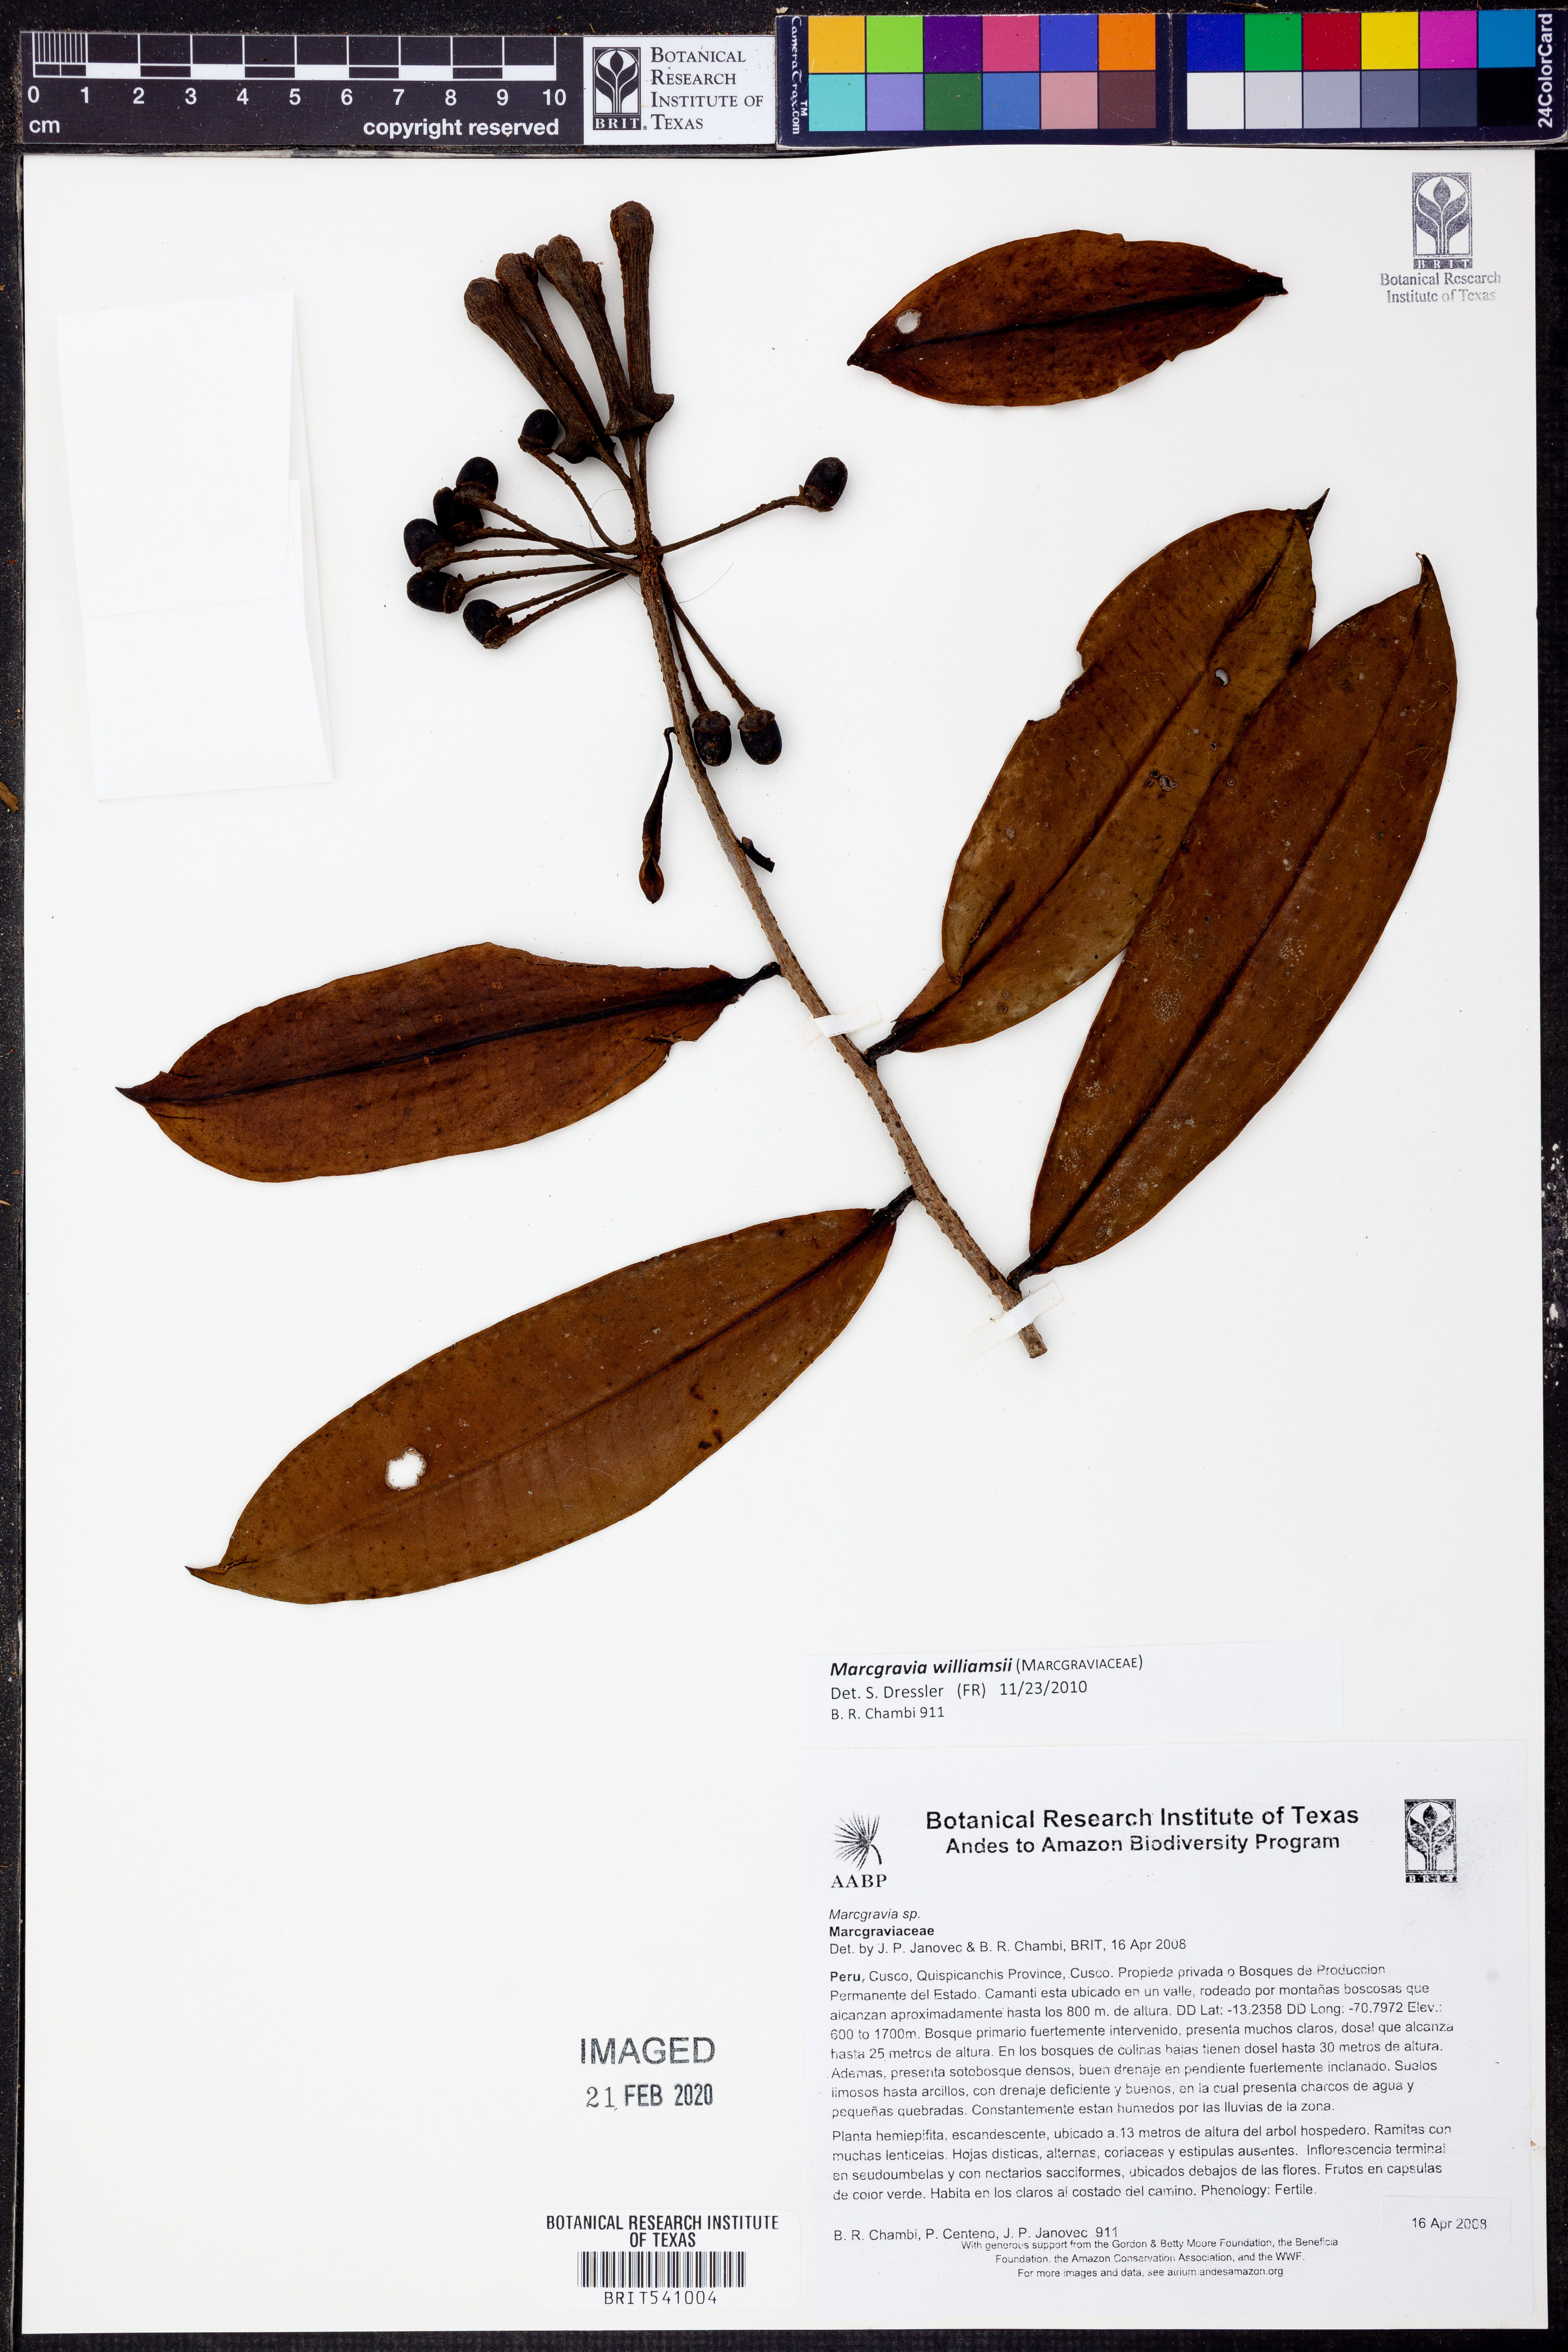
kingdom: Plantae
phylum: Tracheophyta
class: Magnoliopsida
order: Ericales
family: Marcgraviaceae
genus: Marcgravia
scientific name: Marcgravia
